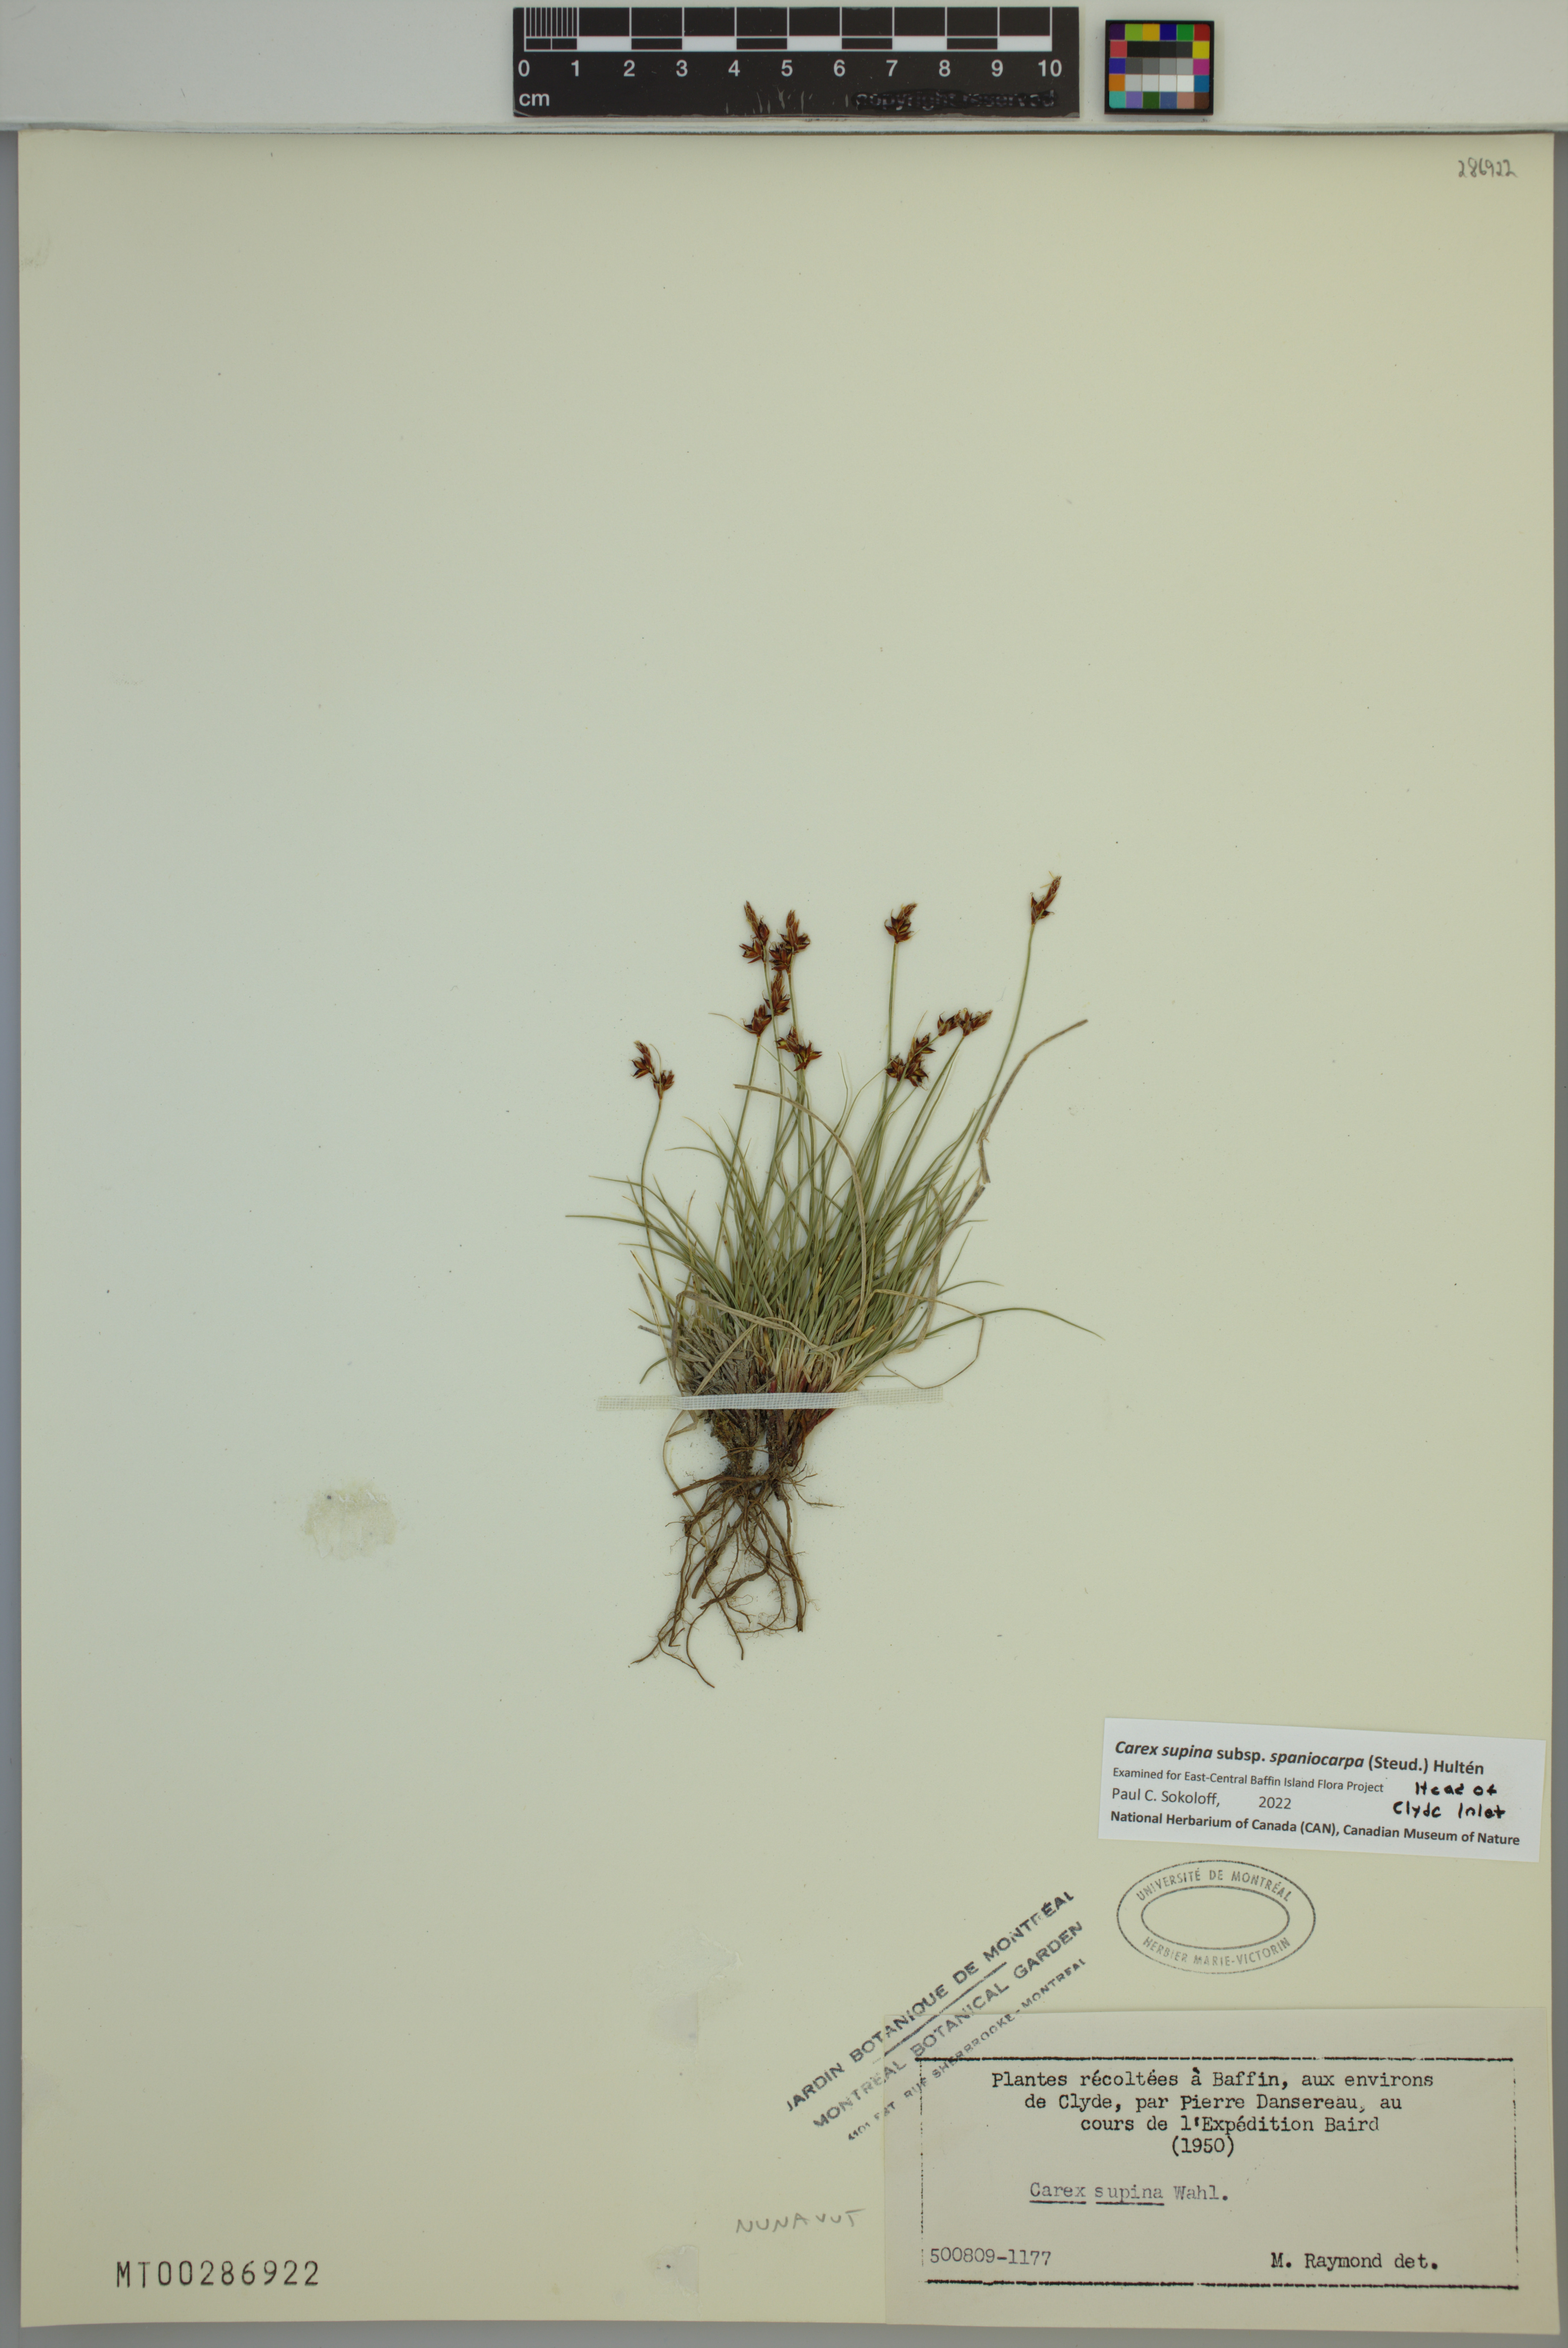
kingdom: Plantae
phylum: Tracheophyta
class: Liliopsida
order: Poales
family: Cyperaceae
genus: Carex
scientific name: Carex supina
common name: Lying-back sedge
